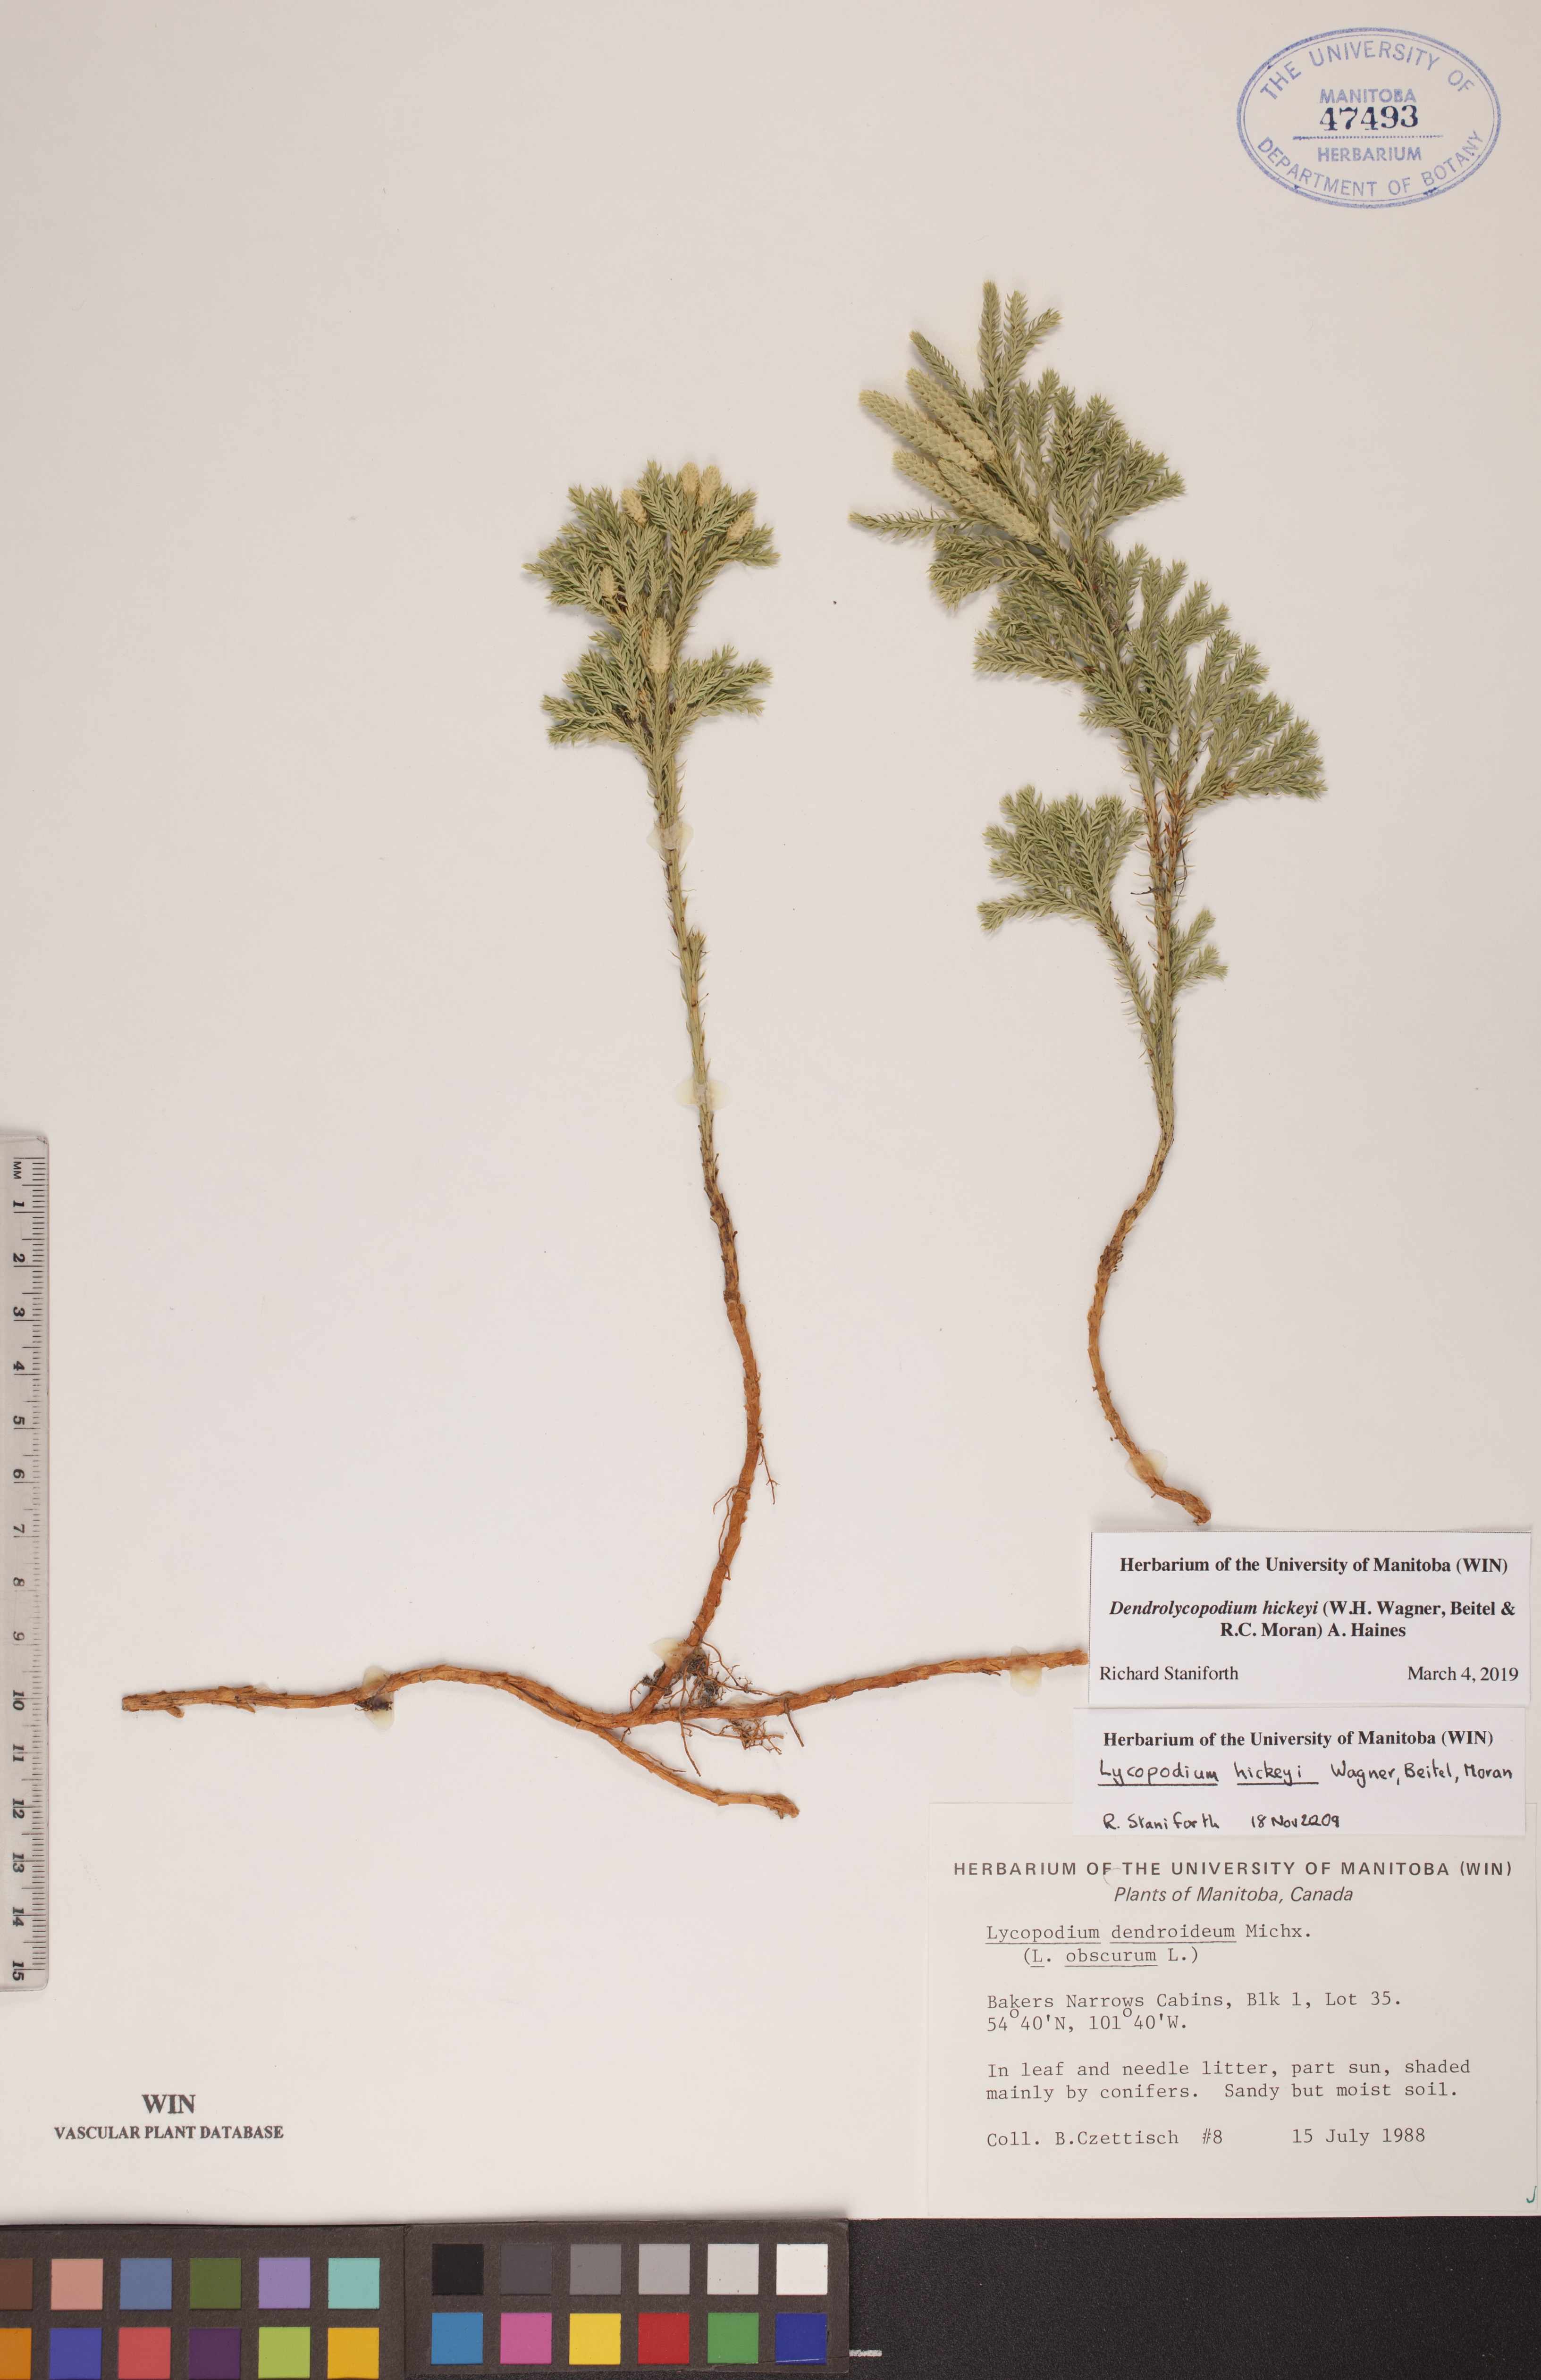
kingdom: Plantae
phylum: Tracheophyta
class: Lycopodiopsida
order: Lycopodiales
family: Lycopodiaceae
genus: Dendrolycopodium
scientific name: Dendrolycopodium hickeyi
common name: Hickey's clubmoss
